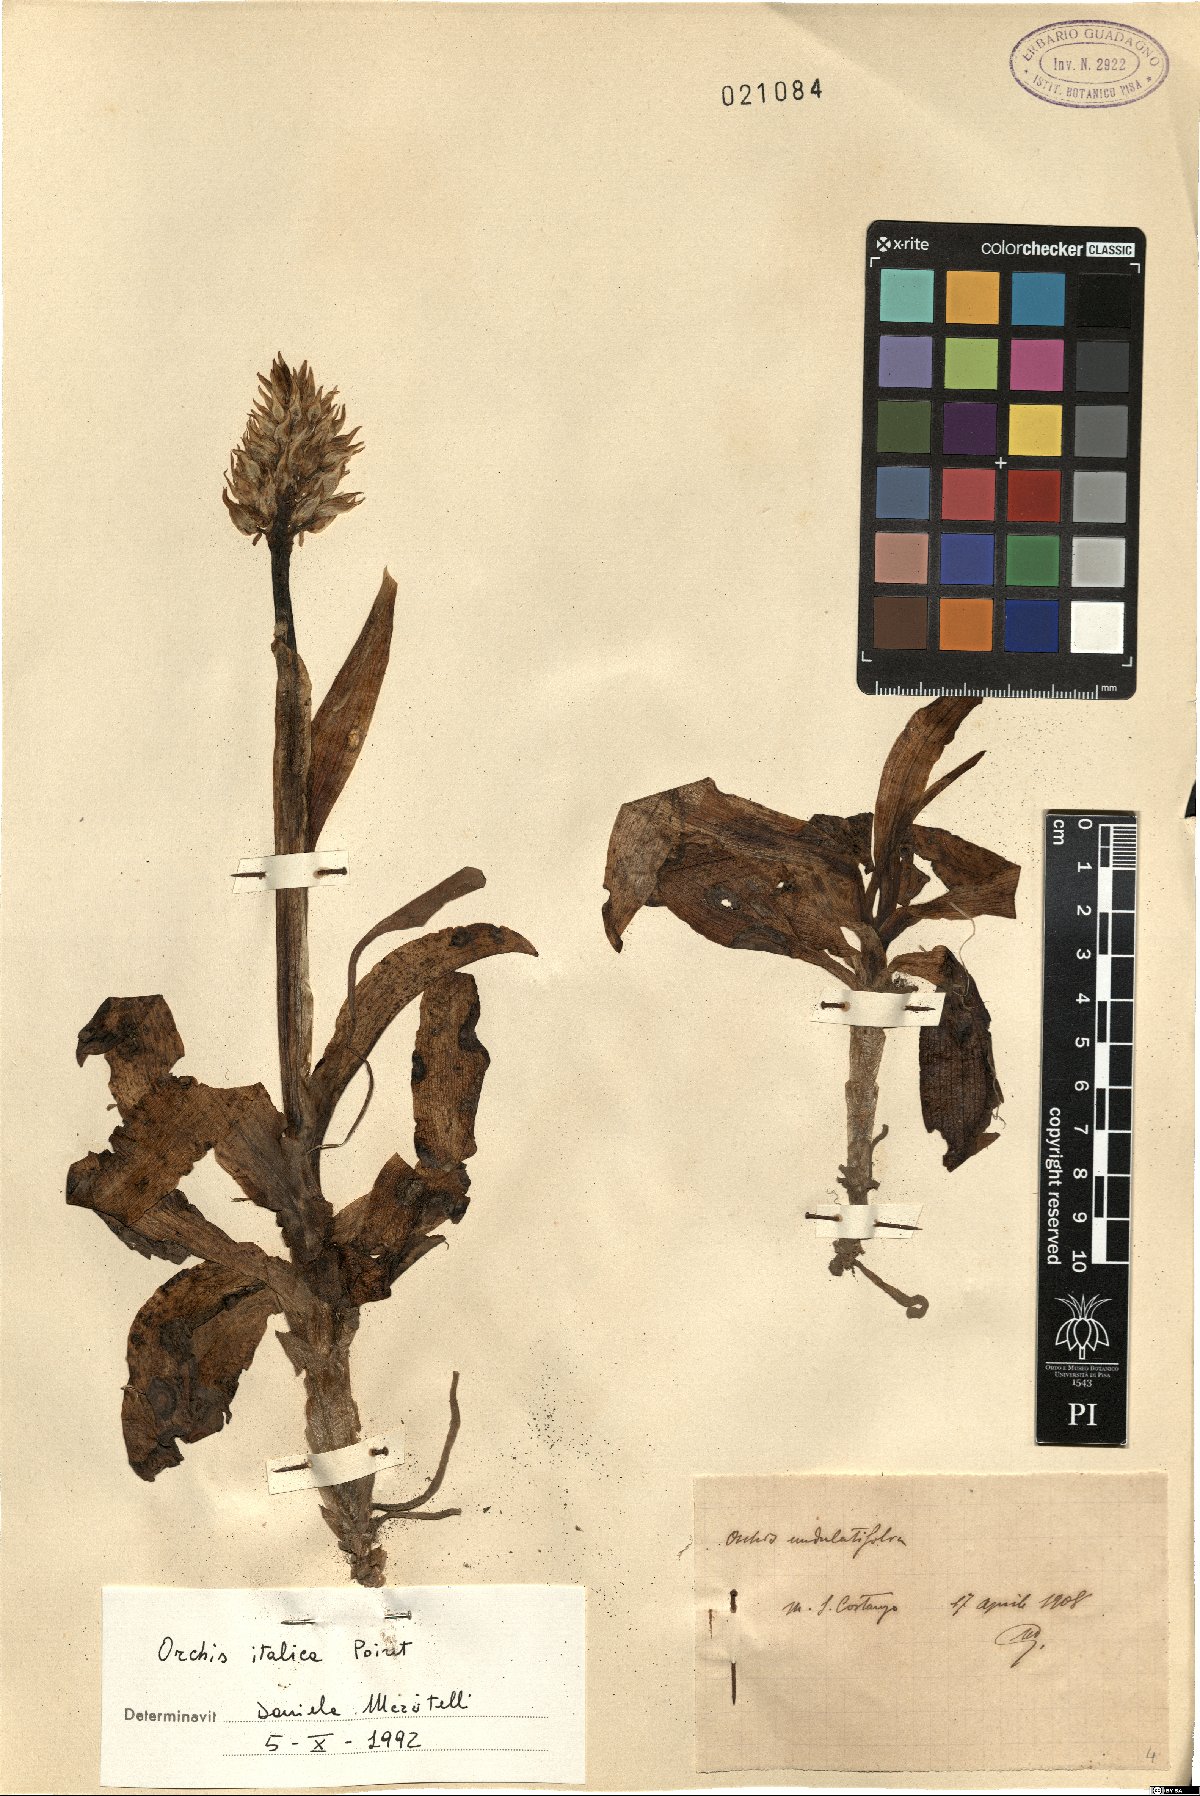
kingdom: Plantae
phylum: Tracheophyta
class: Liliopsida
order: Asparagales
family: Orchidaceae
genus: Orchis
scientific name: Orchis italica
